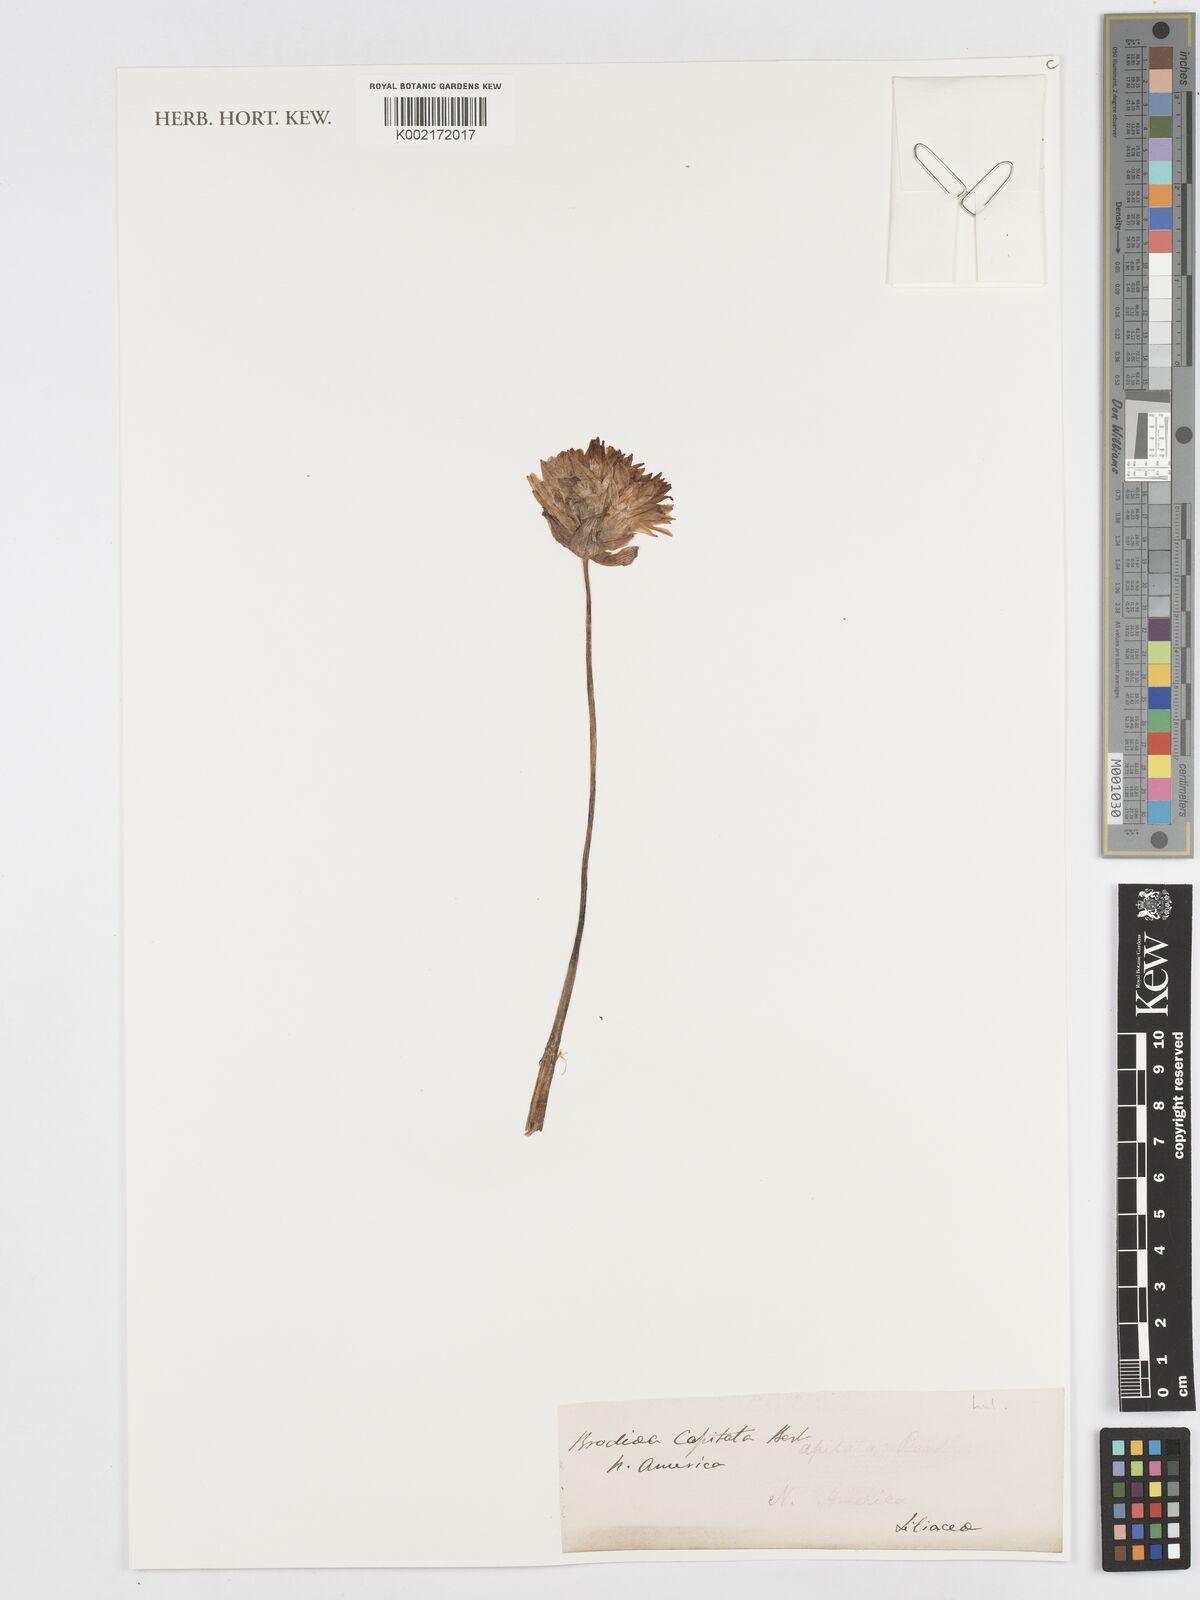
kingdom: Plantae
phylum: Tracheophyta
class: Liliopsida
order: Asparagales
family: Asparagaceae
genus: Dipterostemon
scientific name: Dipterostemon capitatus
